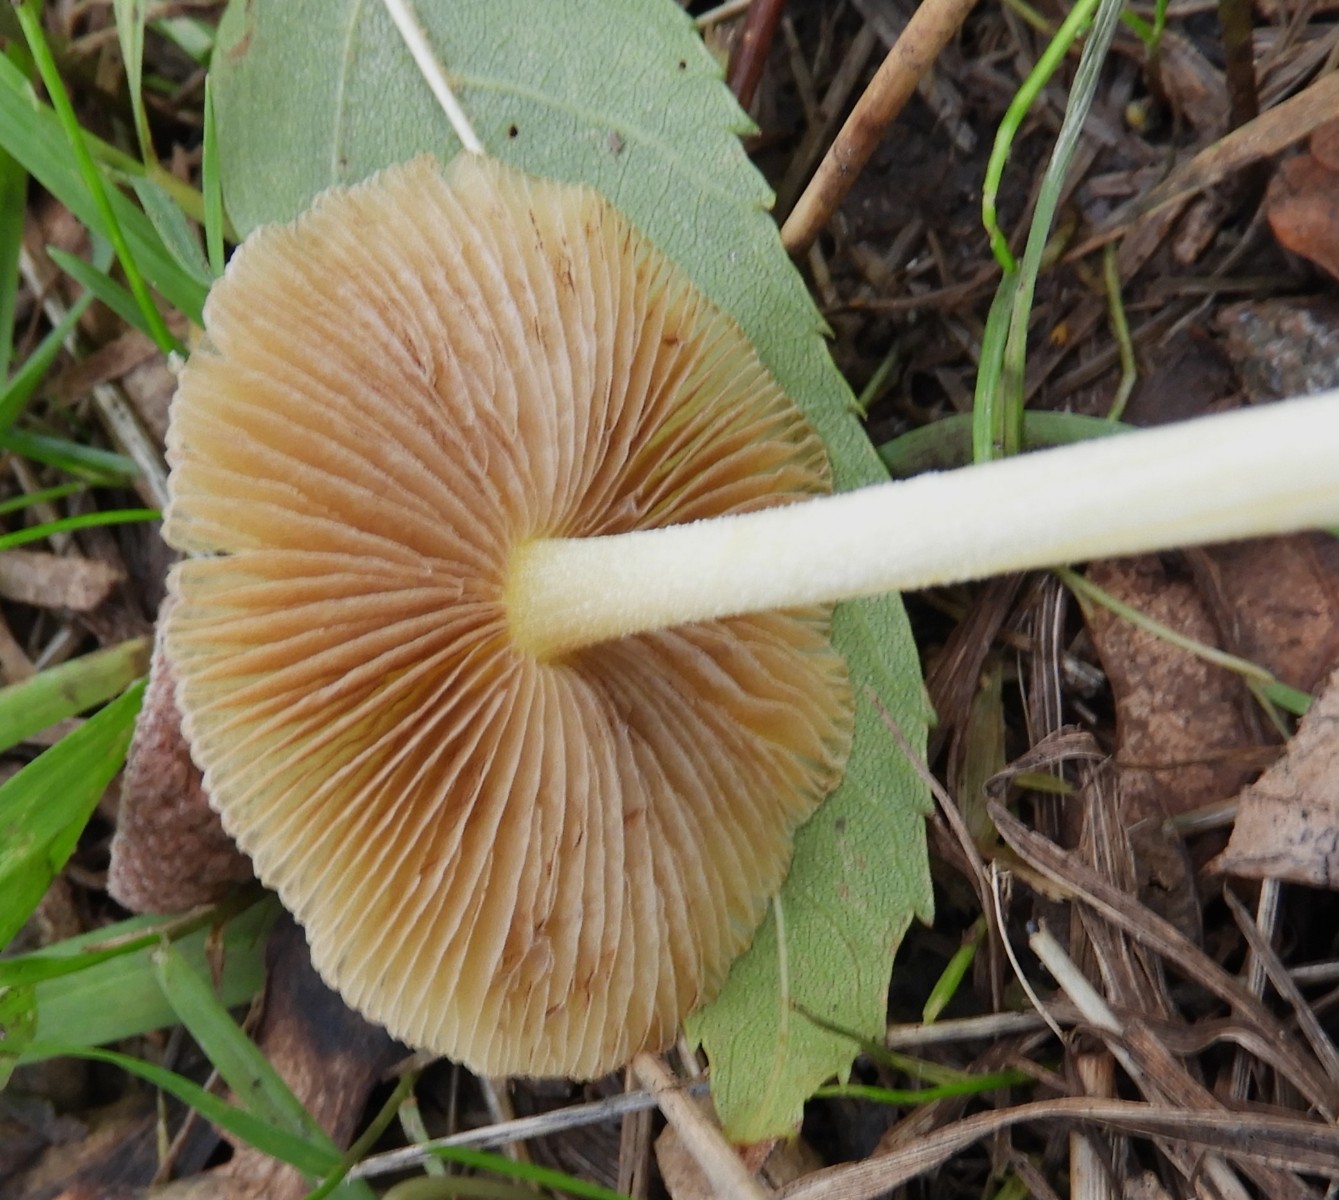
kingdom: Fungi
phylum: Basidiomycota
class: Agaricomycetes
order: Agaricales
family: Bolbitiaceae
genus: Bolbitius
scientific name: Bolbitius titubans
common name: almindelig gulhat
